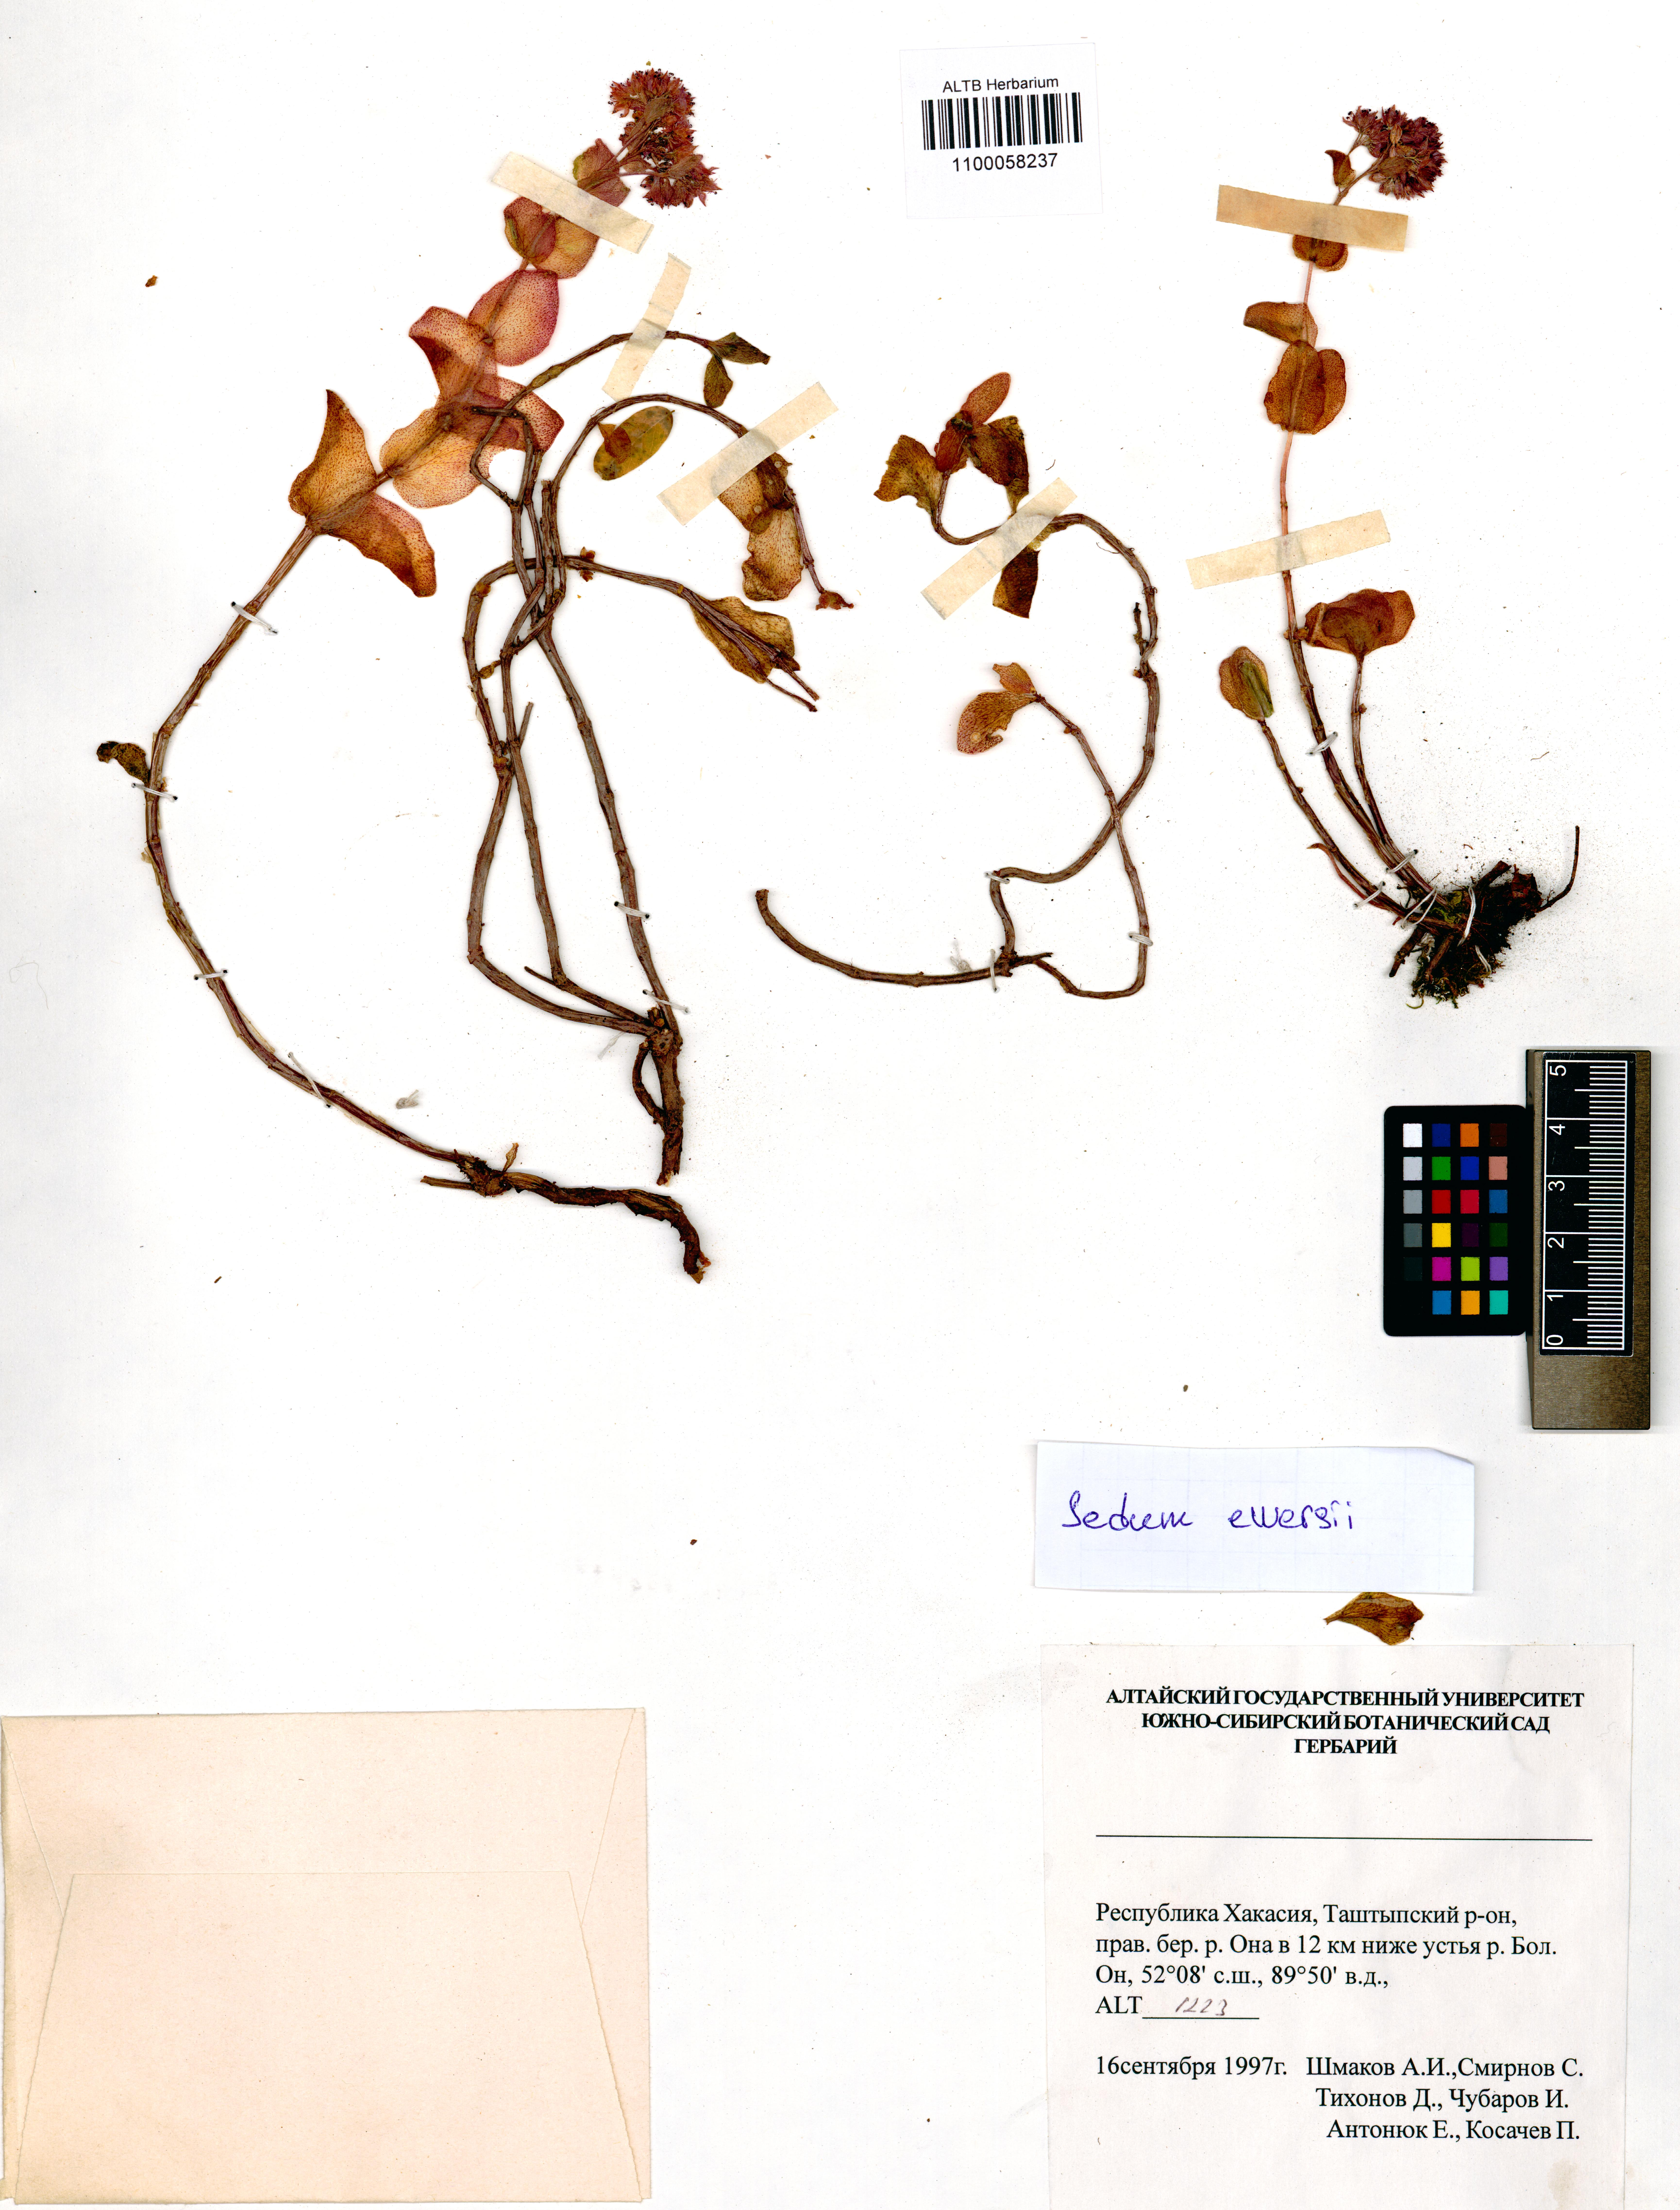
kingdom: Plantae
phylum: Tracheophyta
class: Magnoliopsida
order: Saxifragales
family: Crassulaceae
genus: Hylotelephium
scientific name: Hylotelephium ewersii
